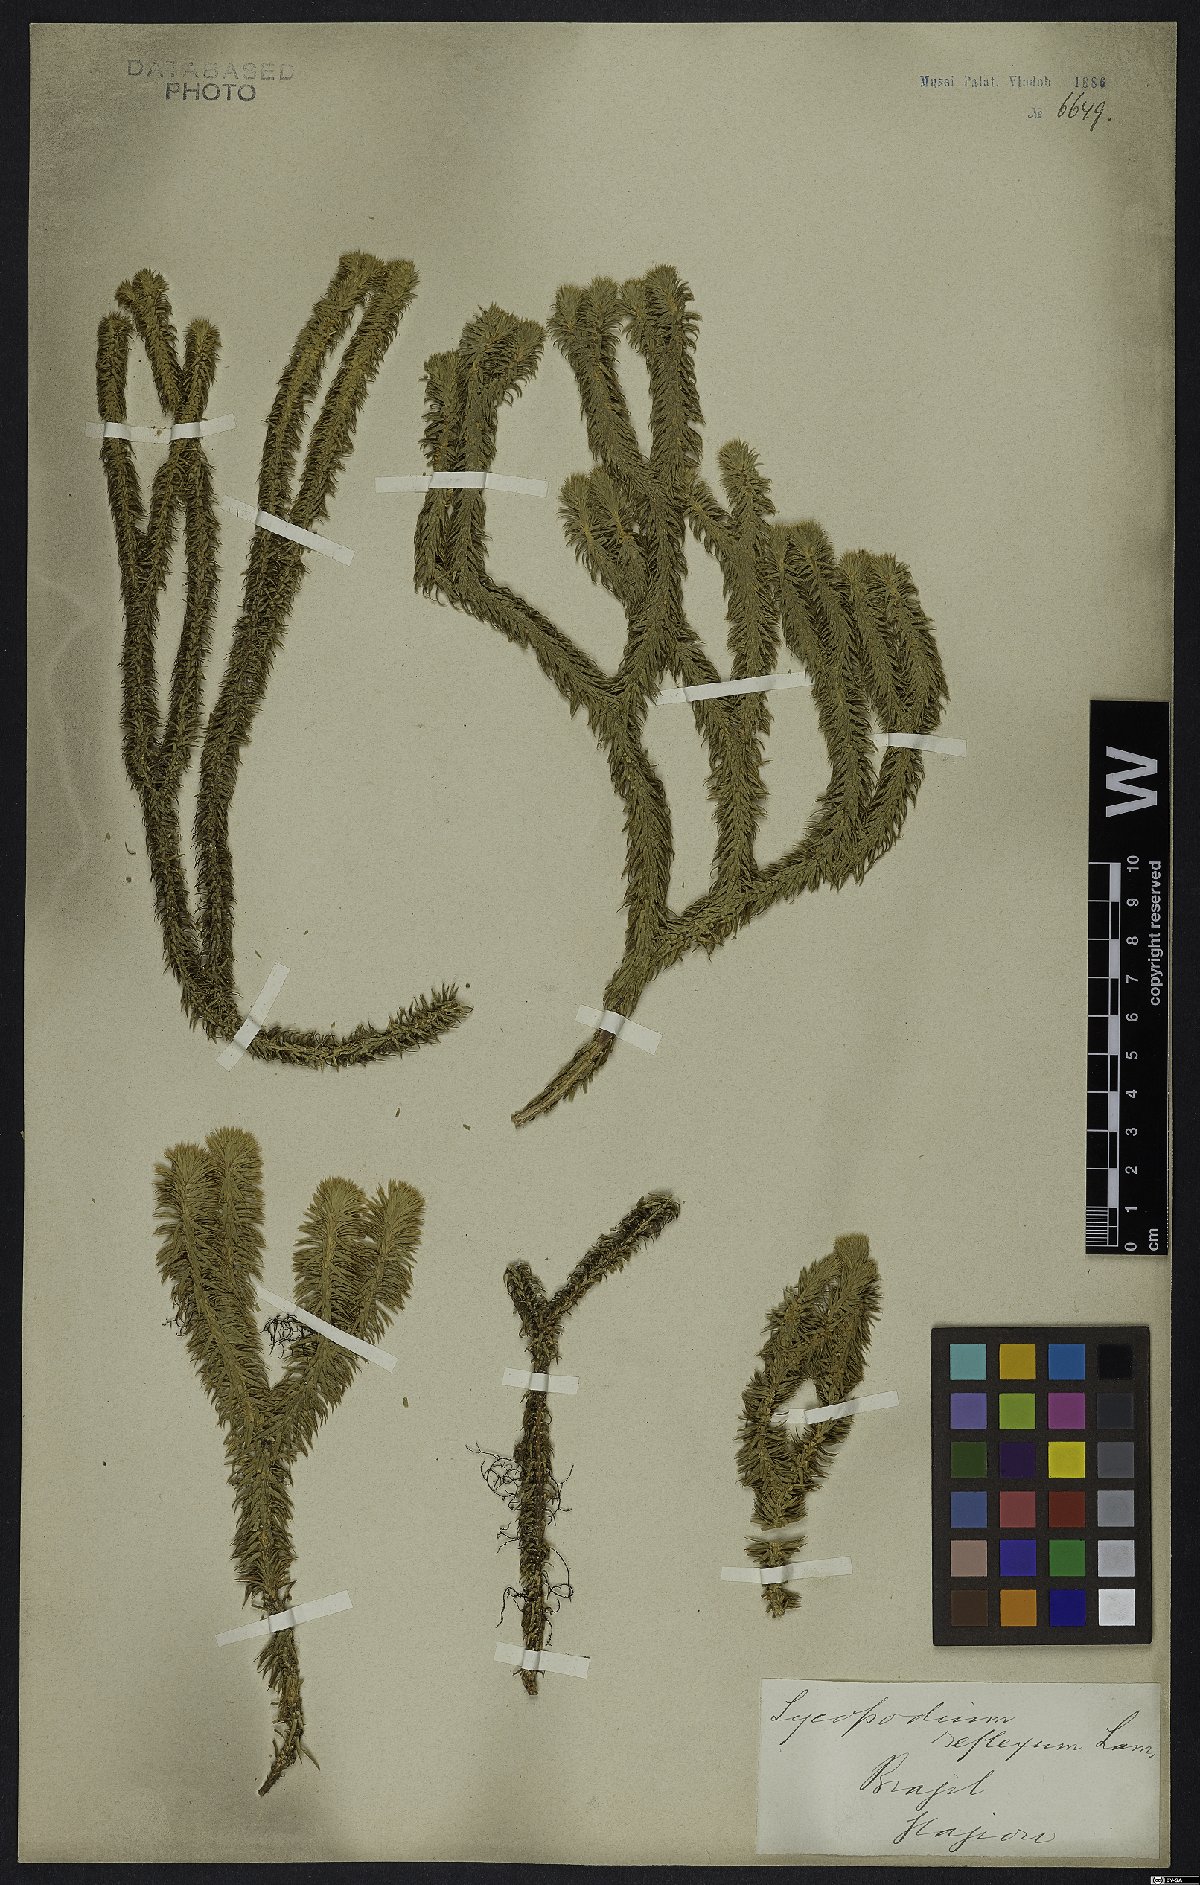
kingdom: Plantae
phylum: Tracheophyta
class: Lycopodiopsida
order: Lycopodiales
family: Lycopodiaceae
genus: Phlegmariurus
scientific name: Phlegmariurus reflexus
